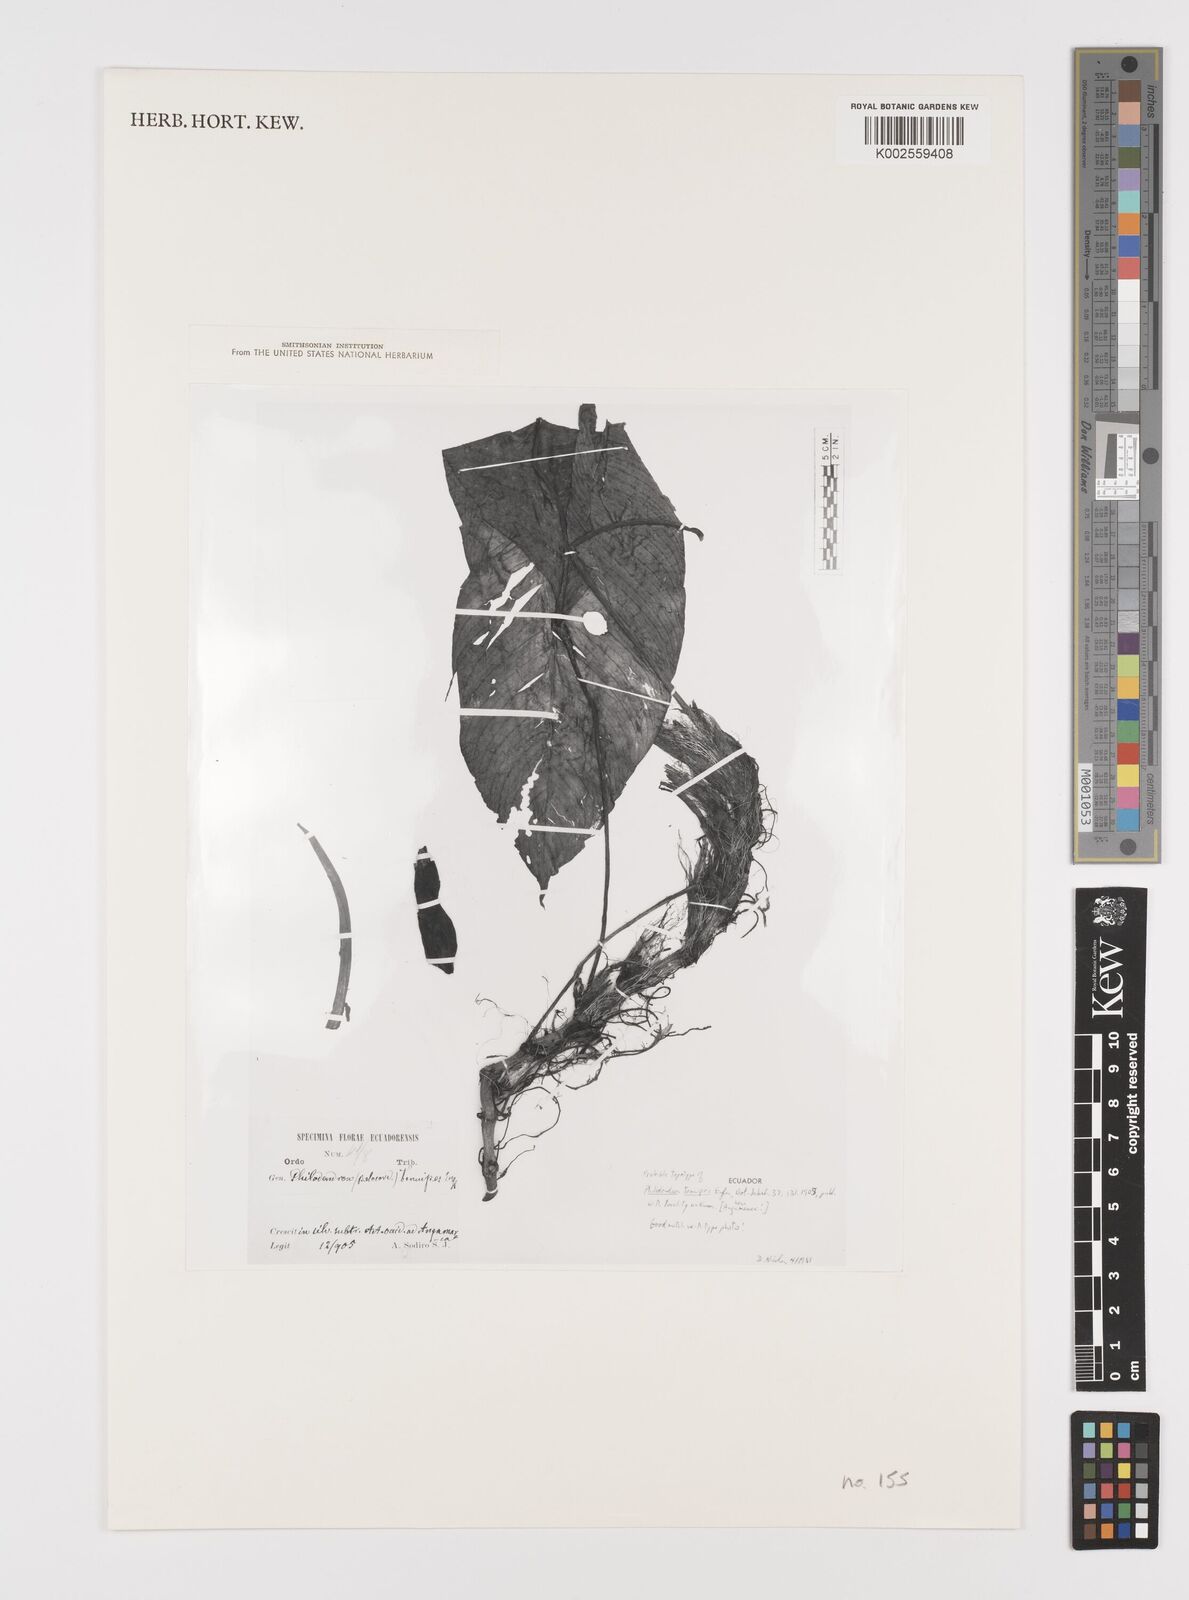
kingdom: Plantae
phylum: Tracheophyta
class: Liliopsida
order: Alismatales
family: Araceae
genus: Philodendron
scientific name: Philodendron tenuipes
